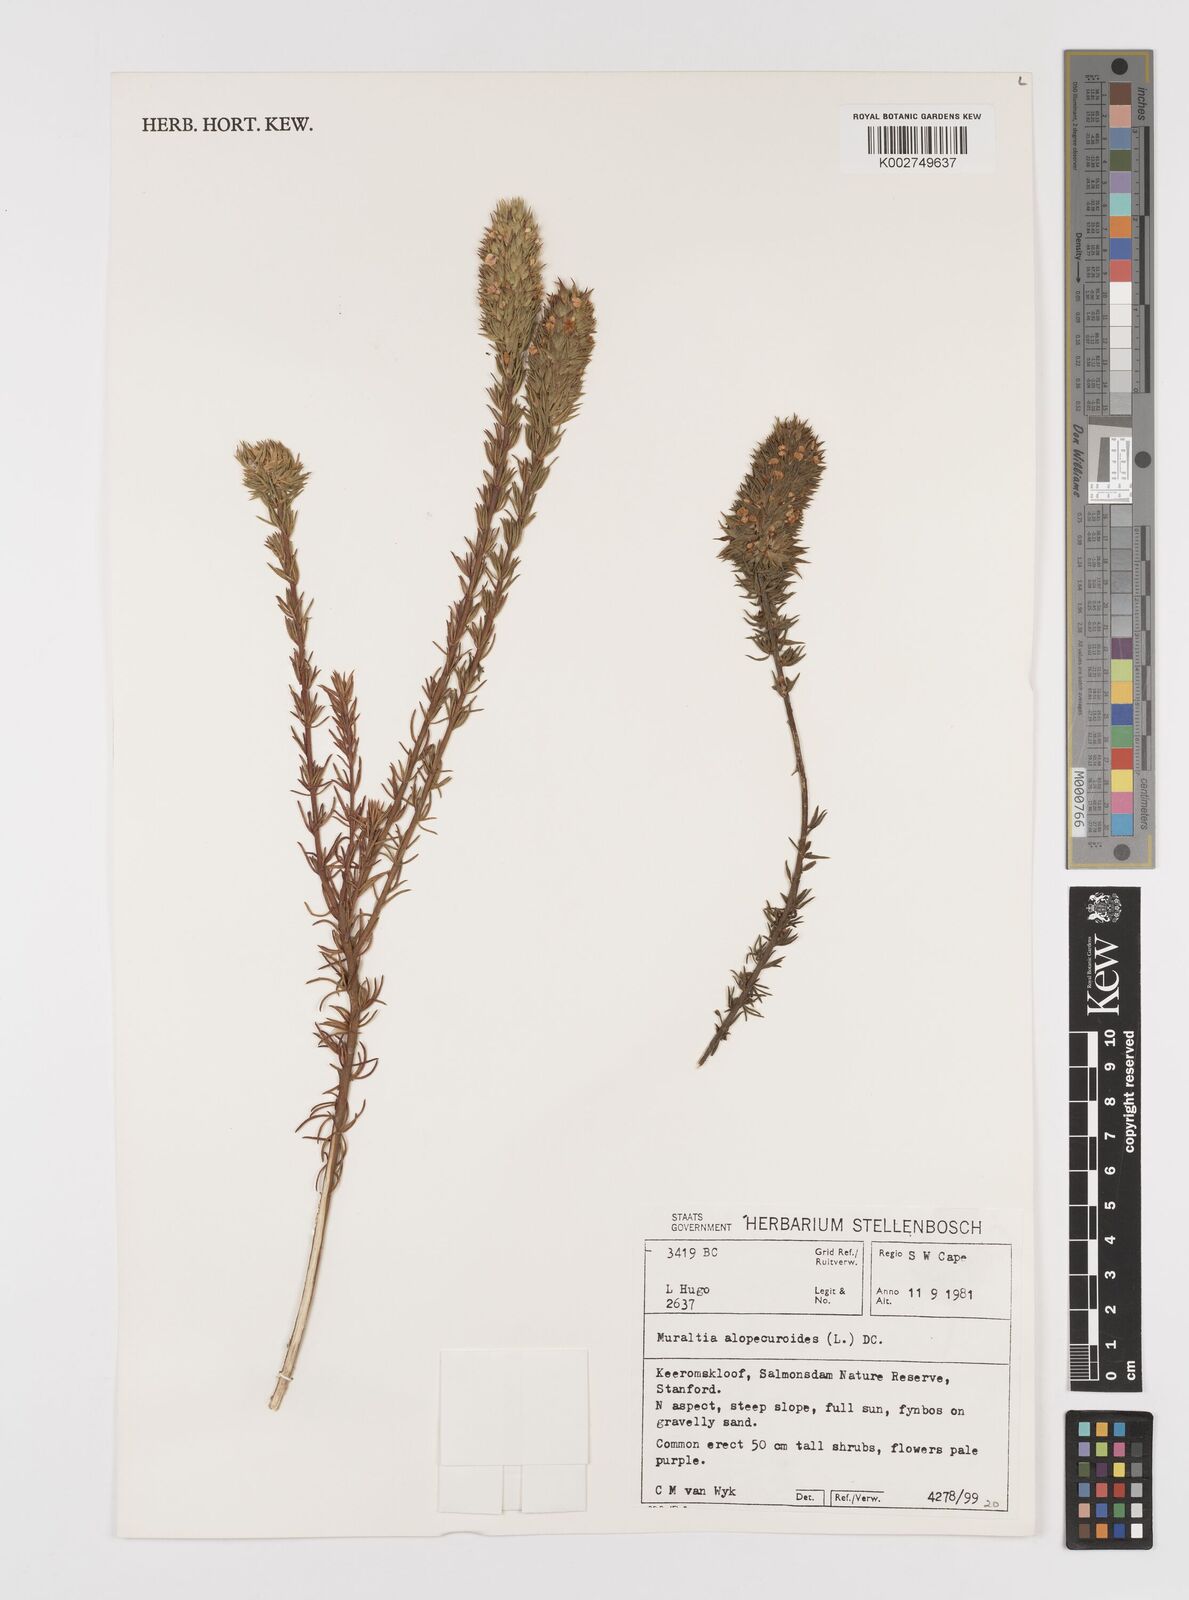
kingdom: Plantae
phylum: Tracheophyta
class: Magnoliopsida
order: Fabales
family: Polygalaceae
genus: Muraltia
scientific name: Muraltia alopecuroides
